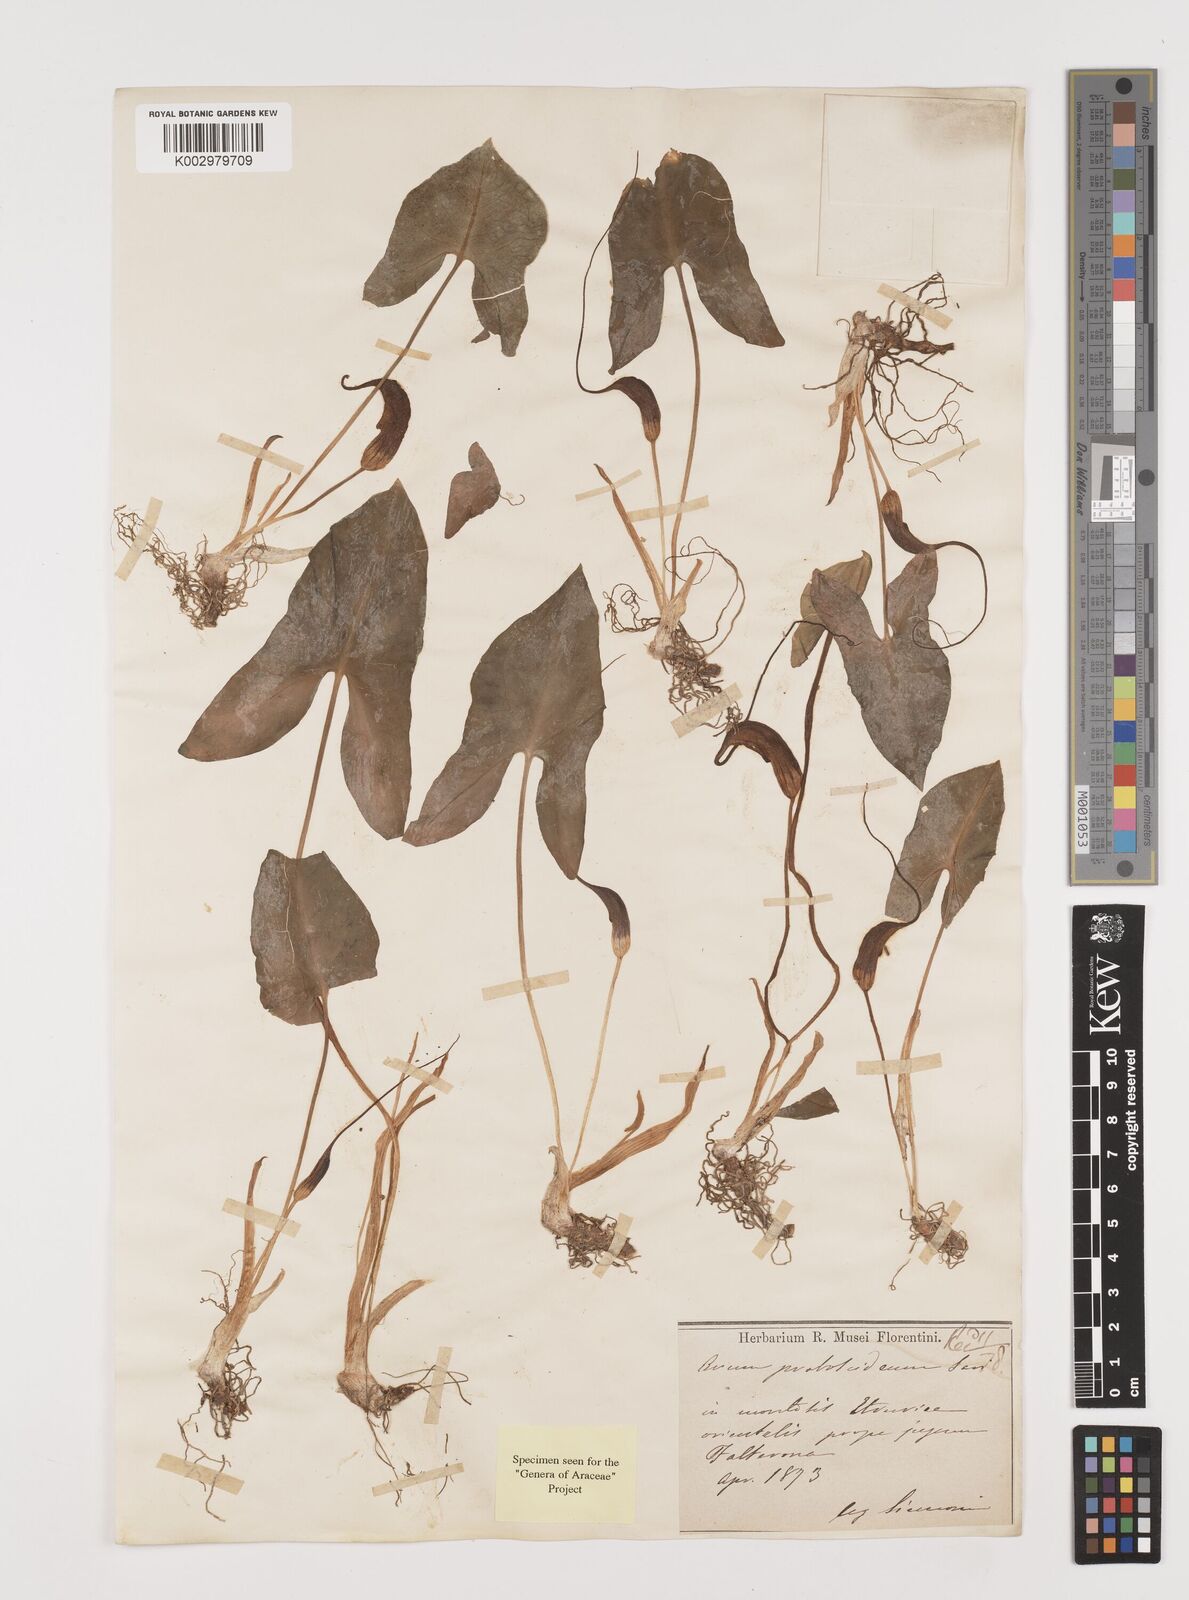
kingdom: Plantae
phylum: Tracheophyta
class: Liliopsida
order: Alismatales
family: Araceae
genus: Arisarum
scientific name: Arisarum proboscideum
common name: Mousetailplant
